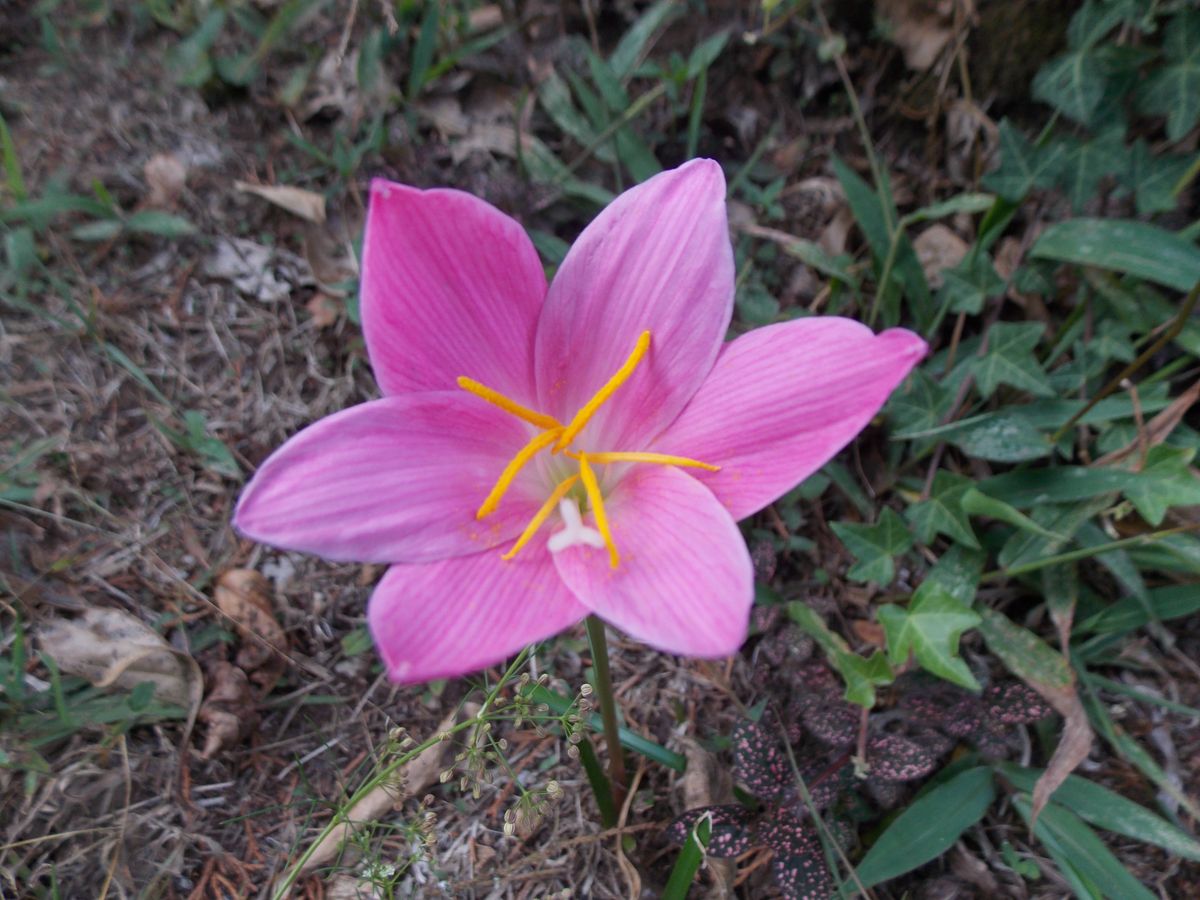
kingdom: Plantae
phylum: Tracheophyta
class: Liliopsida
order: Asparagales
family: Amaryllidaceae
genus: Zephyranthes
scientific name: Zephyranthes minuta
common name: Pink rain lily
